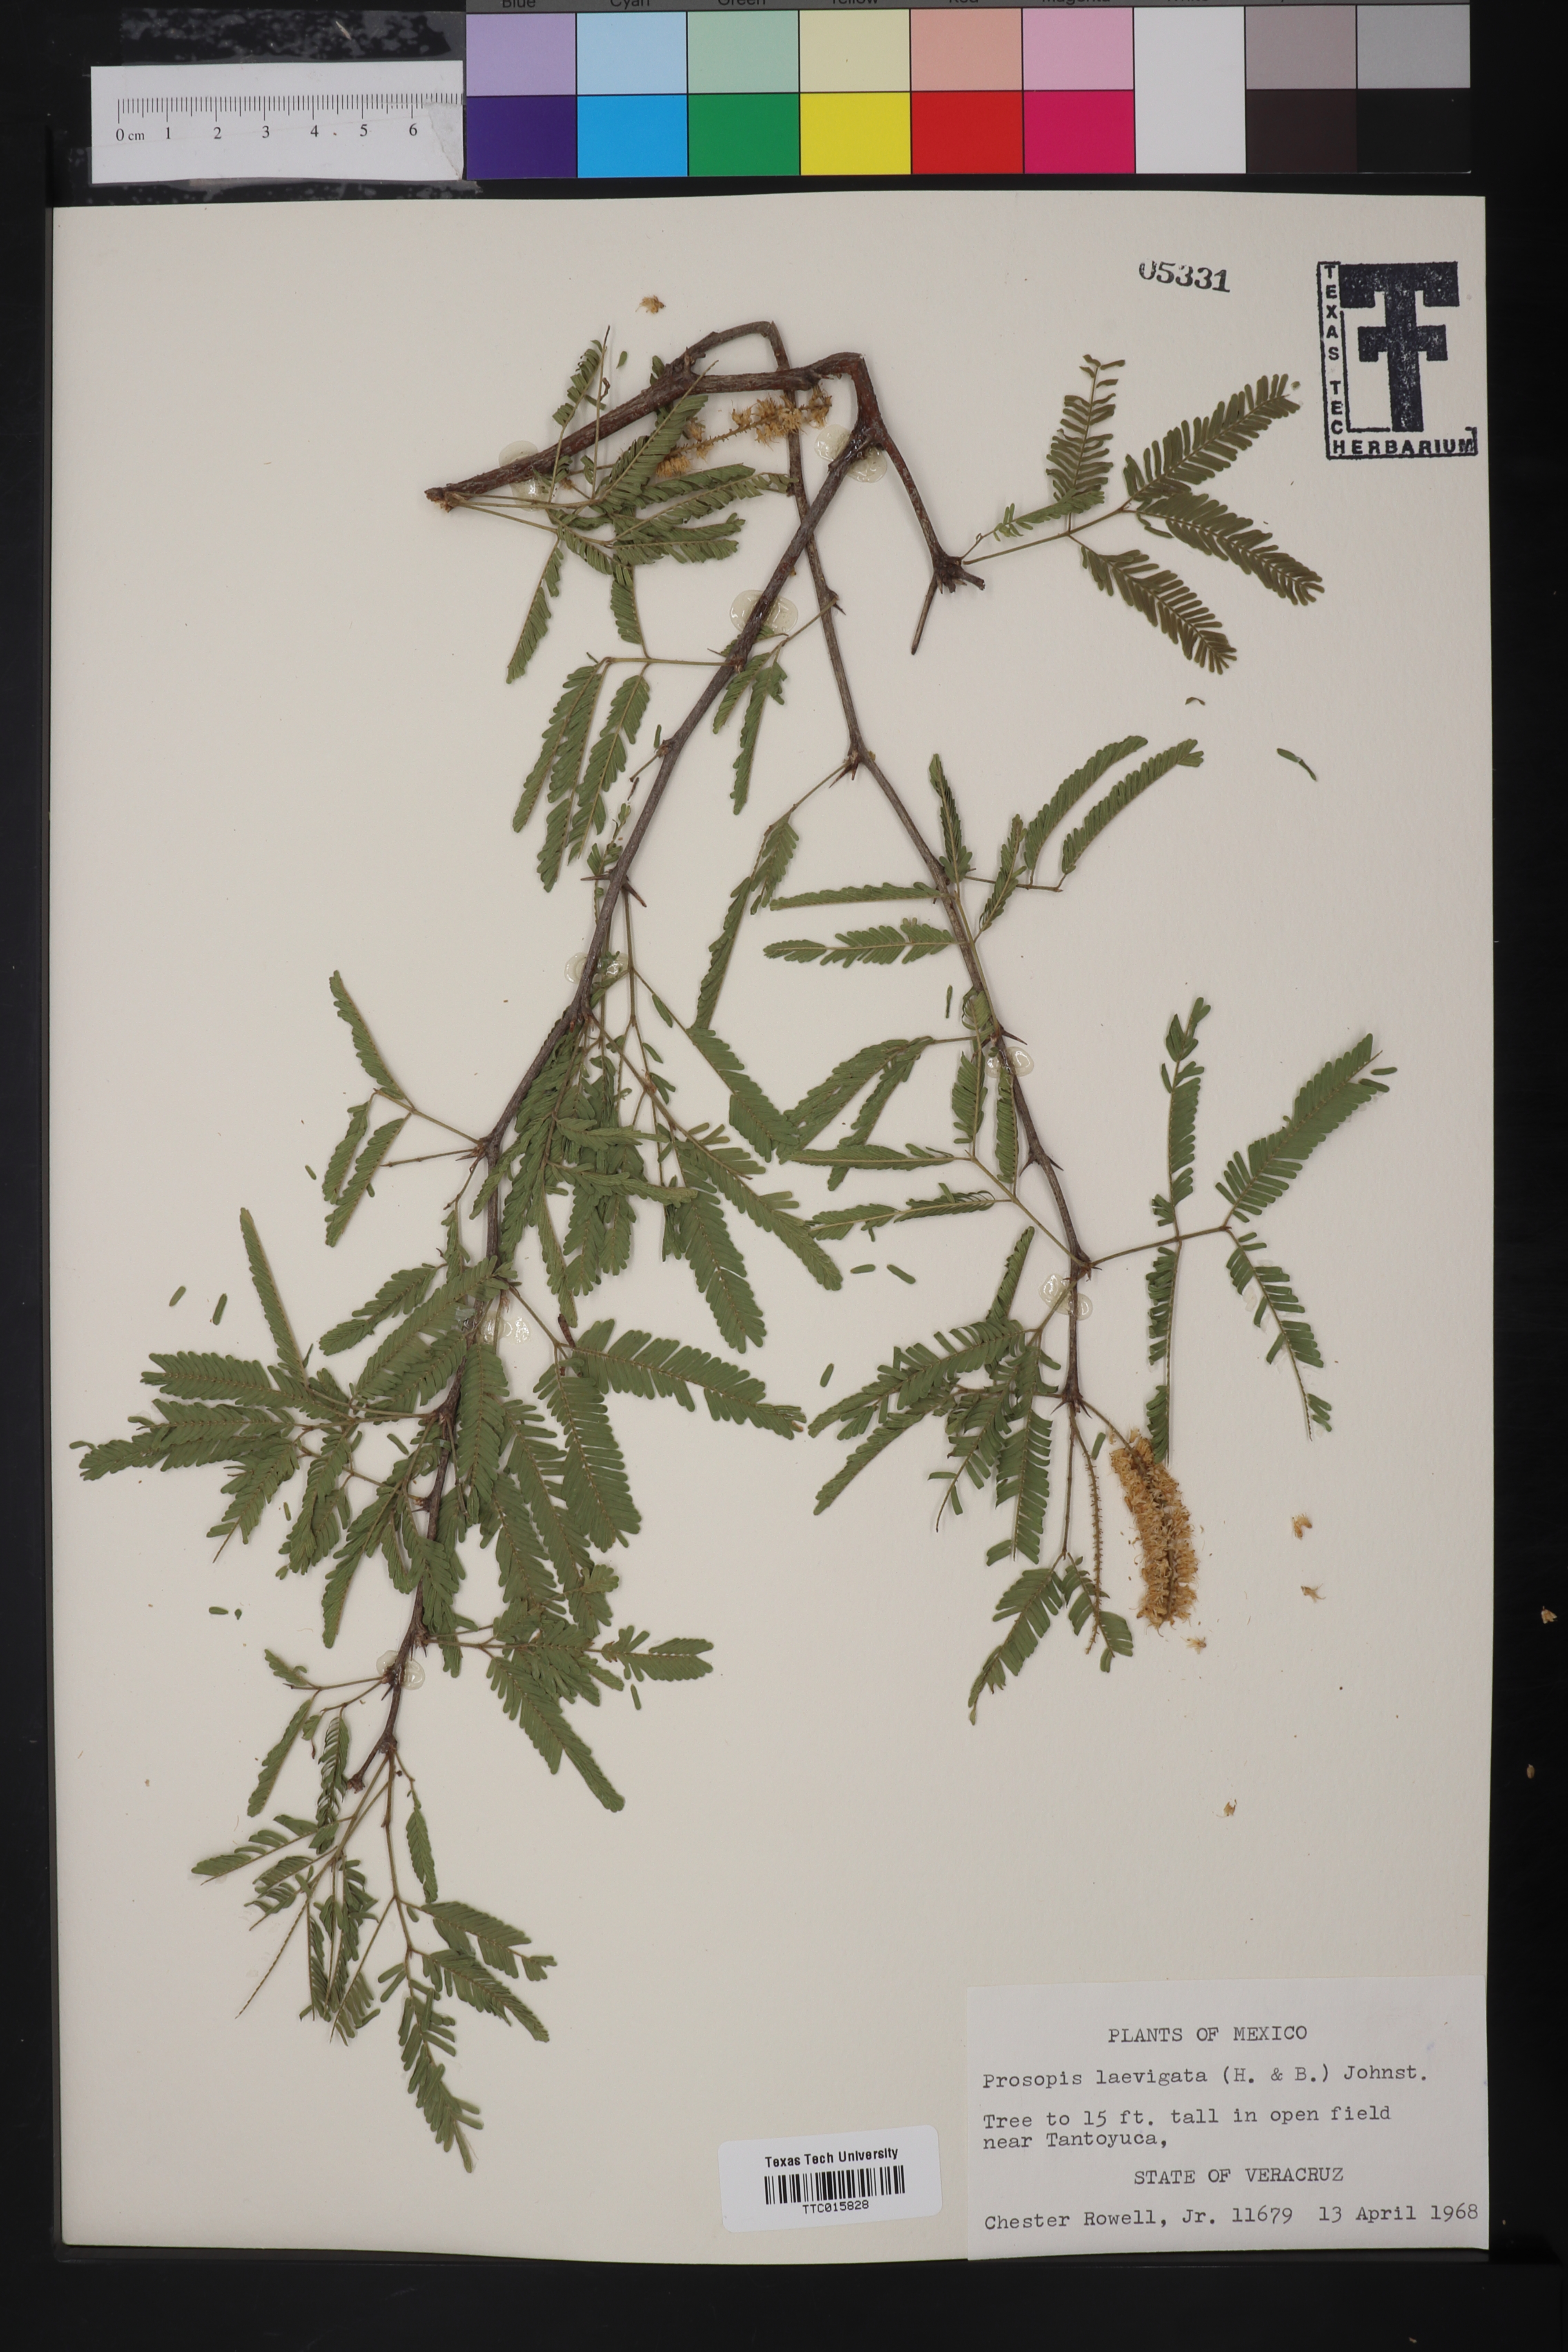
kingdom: Plantae
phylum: Tracheophyta
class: Magnoliopsida
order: Fabales
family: Fabaceae
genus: Prosopis
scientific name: Prosopis laevigata
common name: Smooth mesquite
